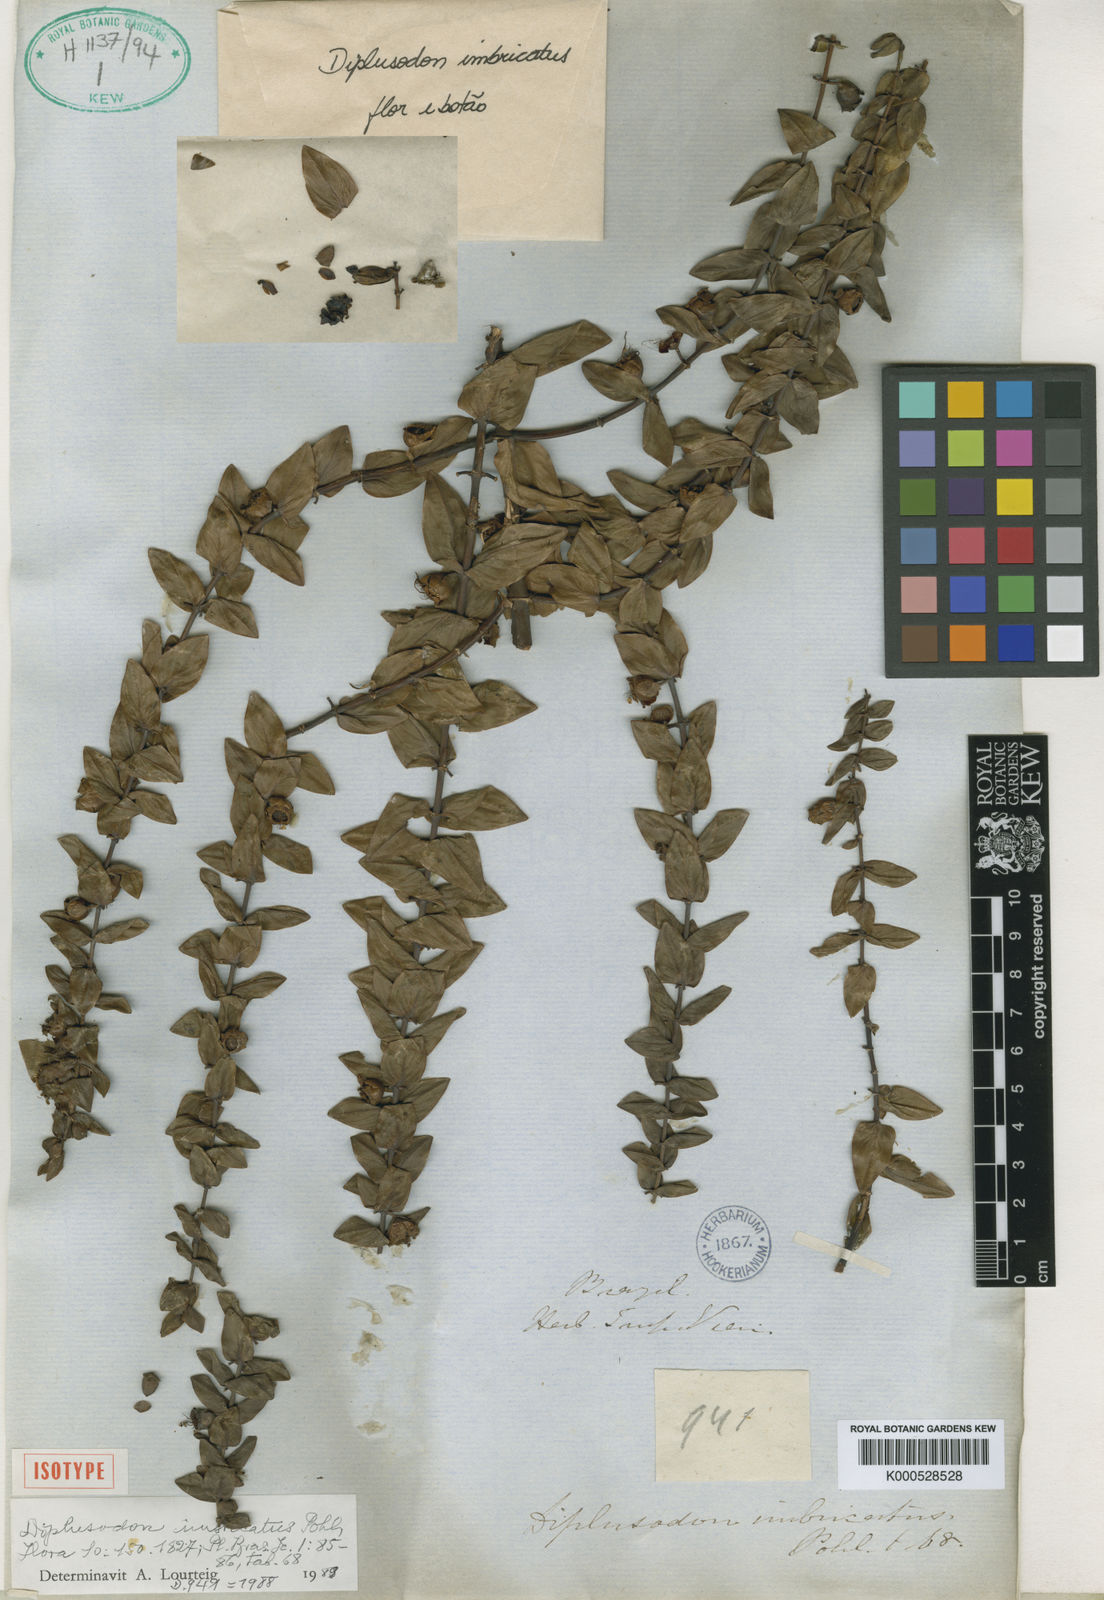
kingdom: Plantae
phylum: Tracheophyta
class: Magnoliopsida
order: Myrtales
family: Lythraceae
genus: Diplusodon
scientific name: Diplusodon imbricatus
